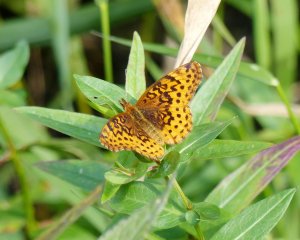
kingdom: Animalia
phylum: Arthropoda
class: Insecta
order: Lepidoptera
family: Nymphalidae
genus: Clossiana
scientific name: Clossiana toddi
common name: Meadow Fritillary
